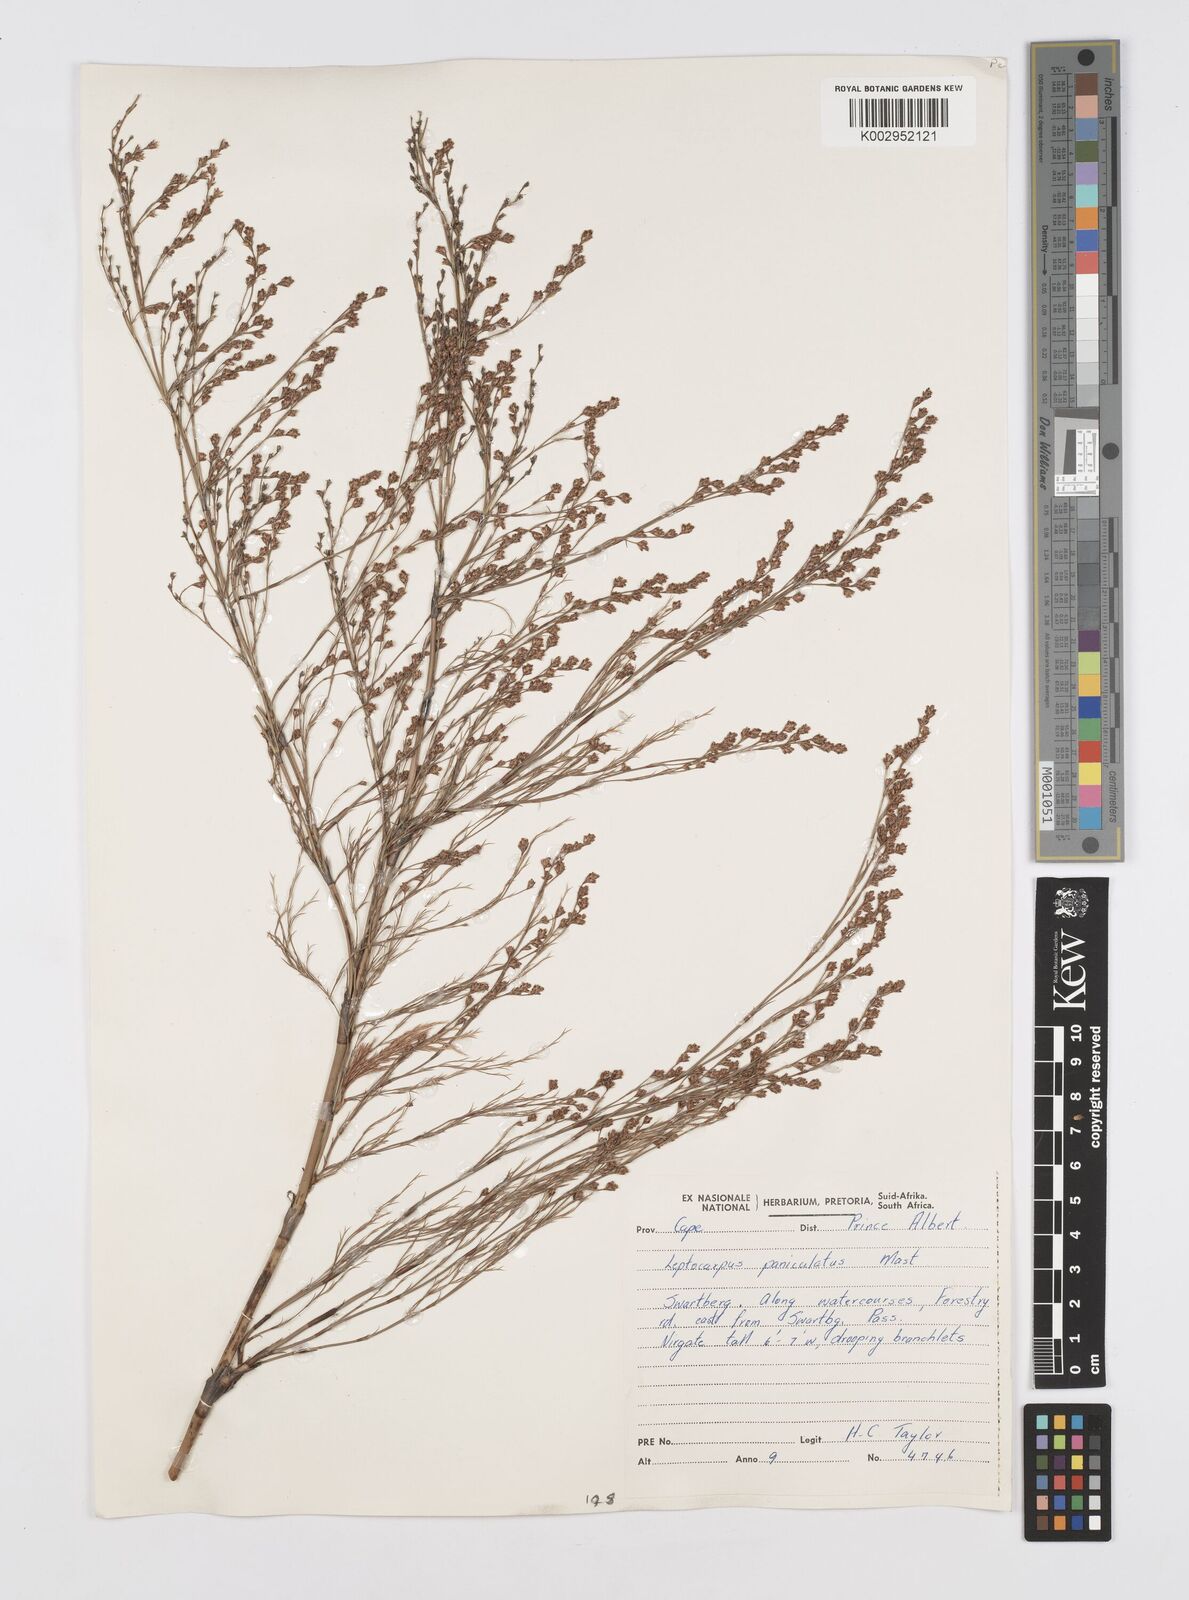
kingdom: Plantae
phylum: Tracheophyta
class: Liliopsida
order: Poales
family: Restionaceae
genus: Restio
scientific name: Restio
